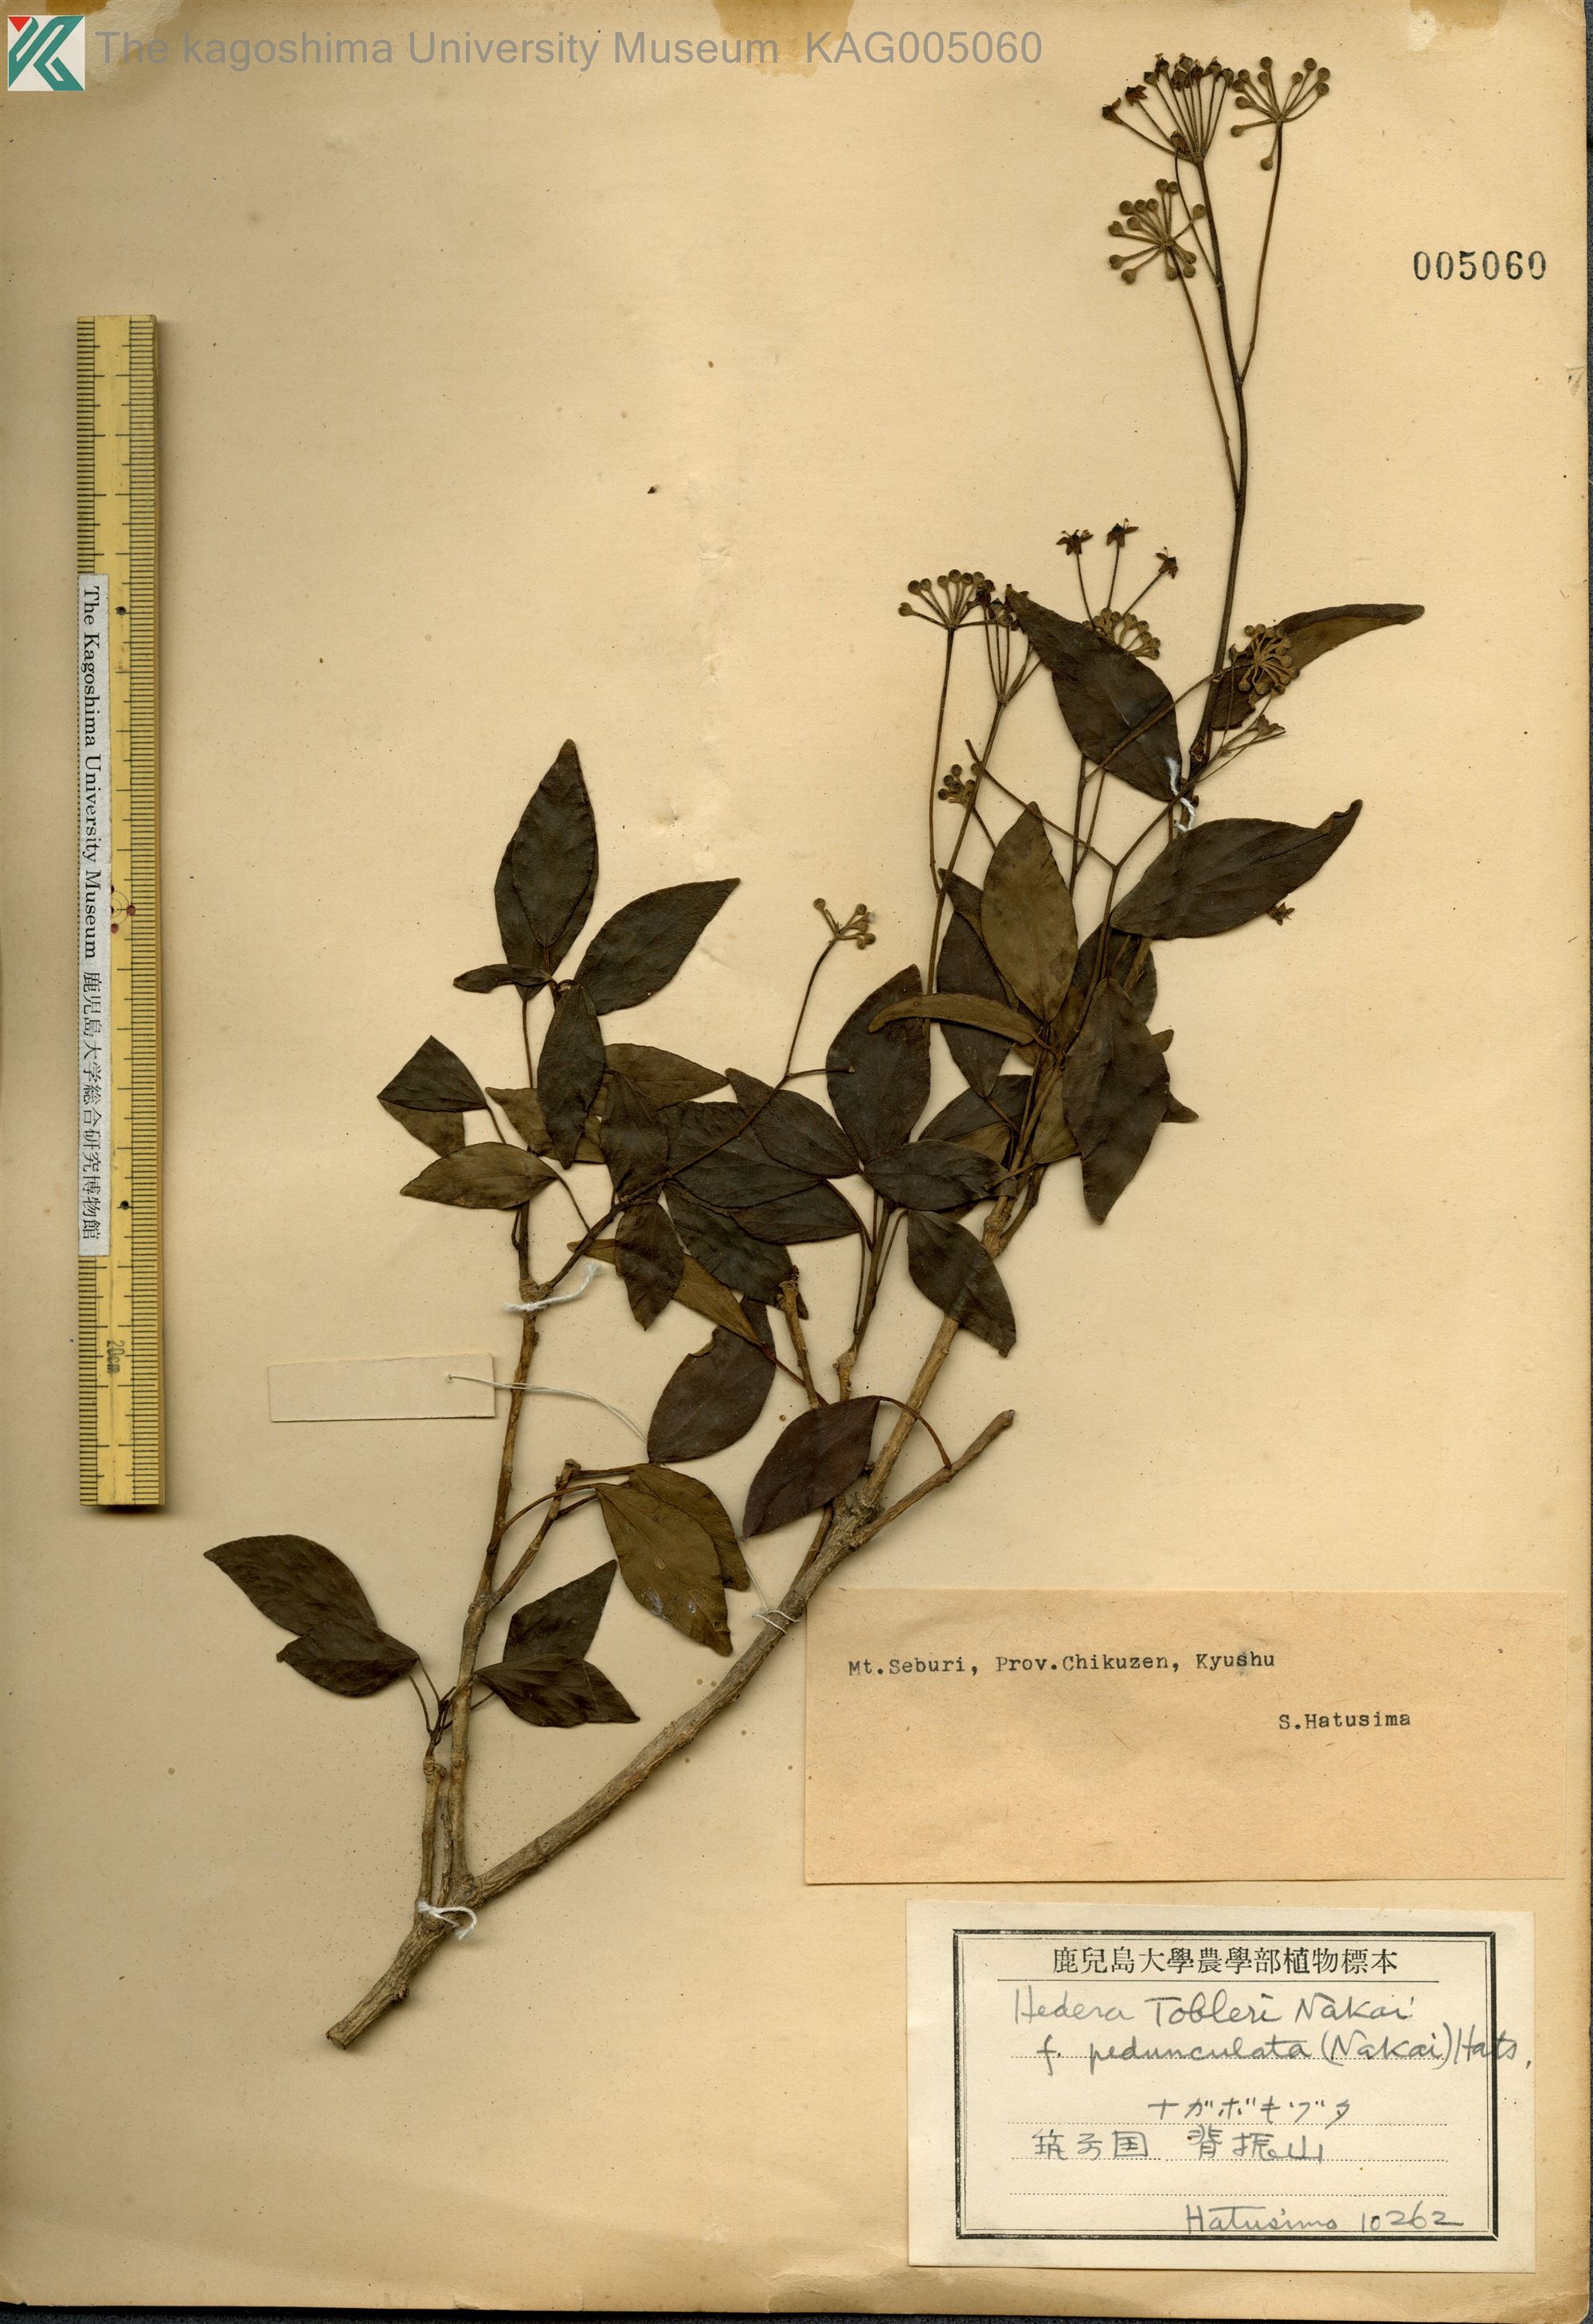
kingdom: Plantae
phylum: Tracheophyta
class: Magnoliopsida
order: Apiales
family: Araliaceae
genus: Hedera
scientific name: Hedera rhombea
